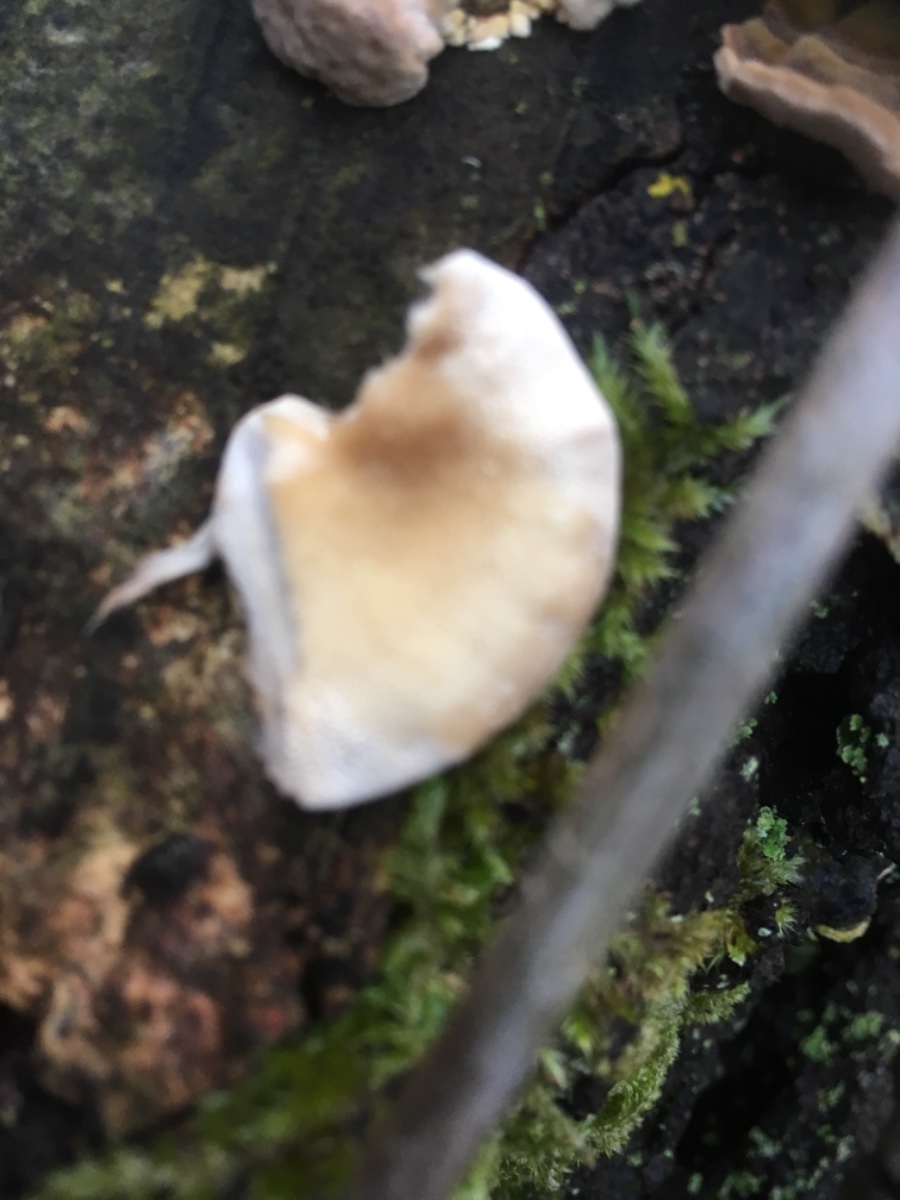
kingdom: Fungi
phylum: Basidiomycota
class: Agaricomycetes
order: Polyporales
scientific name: Polyporales
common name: poresvampordenen
